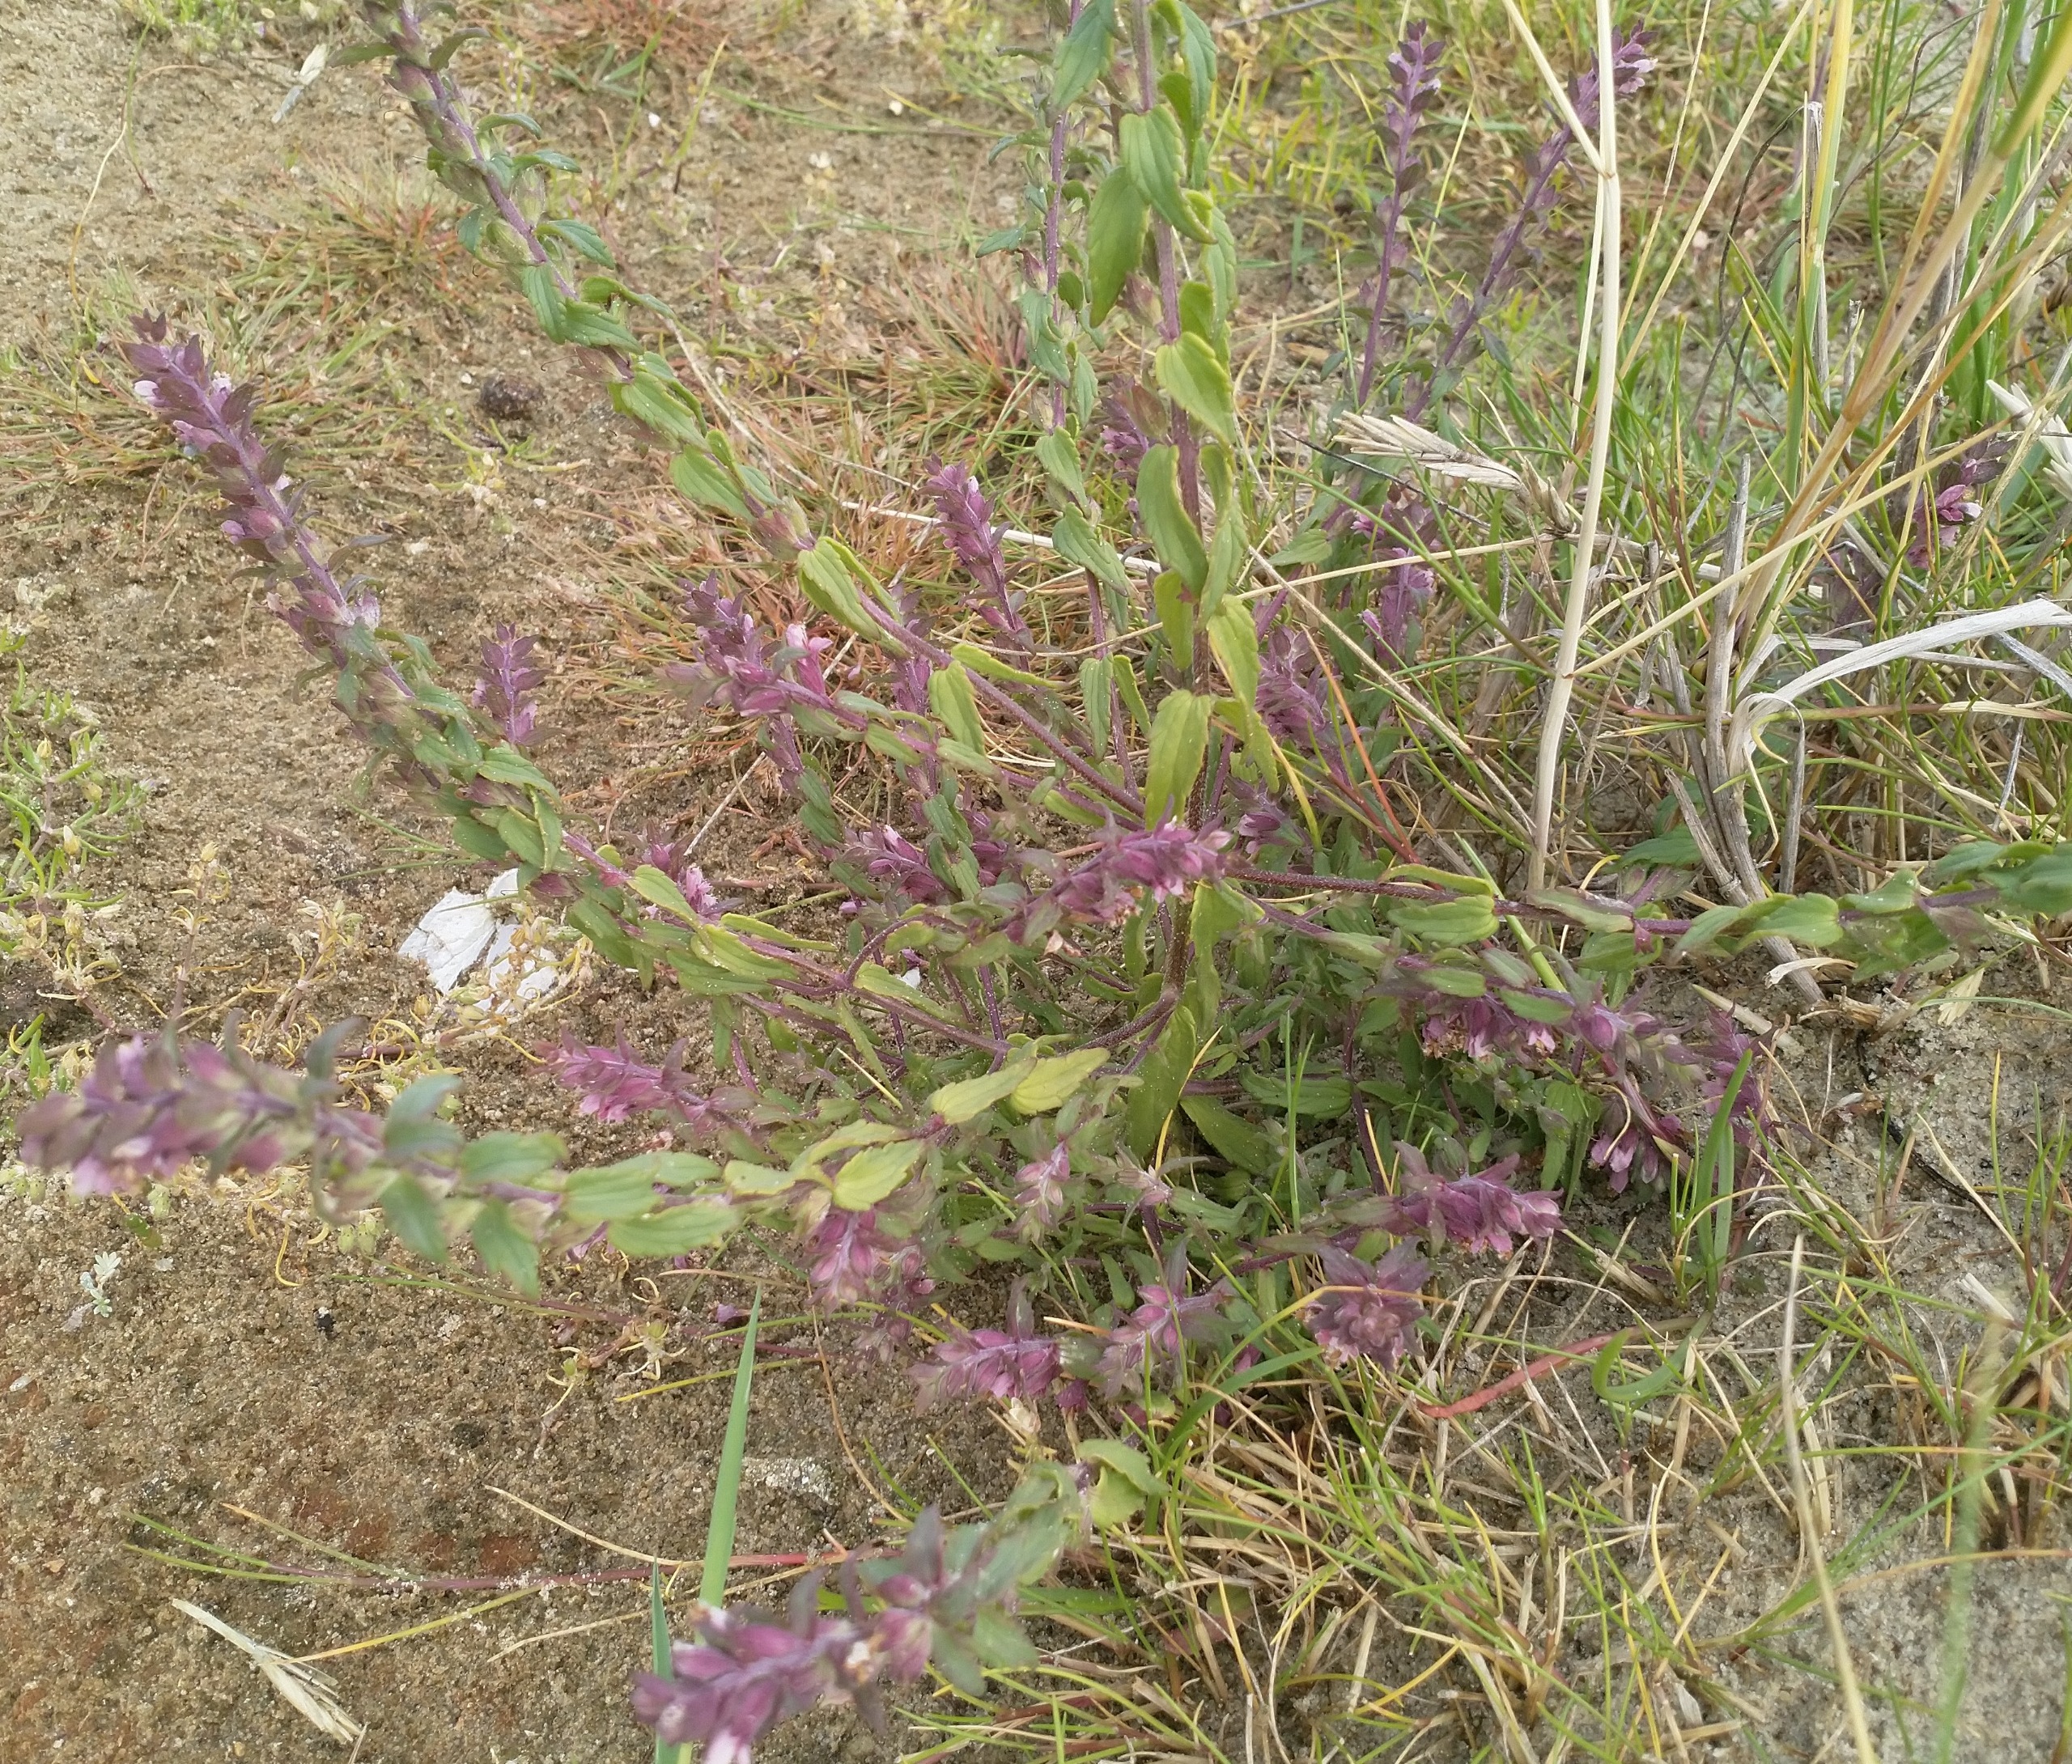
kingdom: Plantae
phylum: Tracheophyta
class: Magnoliopsida
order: Lamiales
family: Orobanchaceae
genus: Odontites
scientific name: Odontites vulgaris
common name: Høst-rødtop
